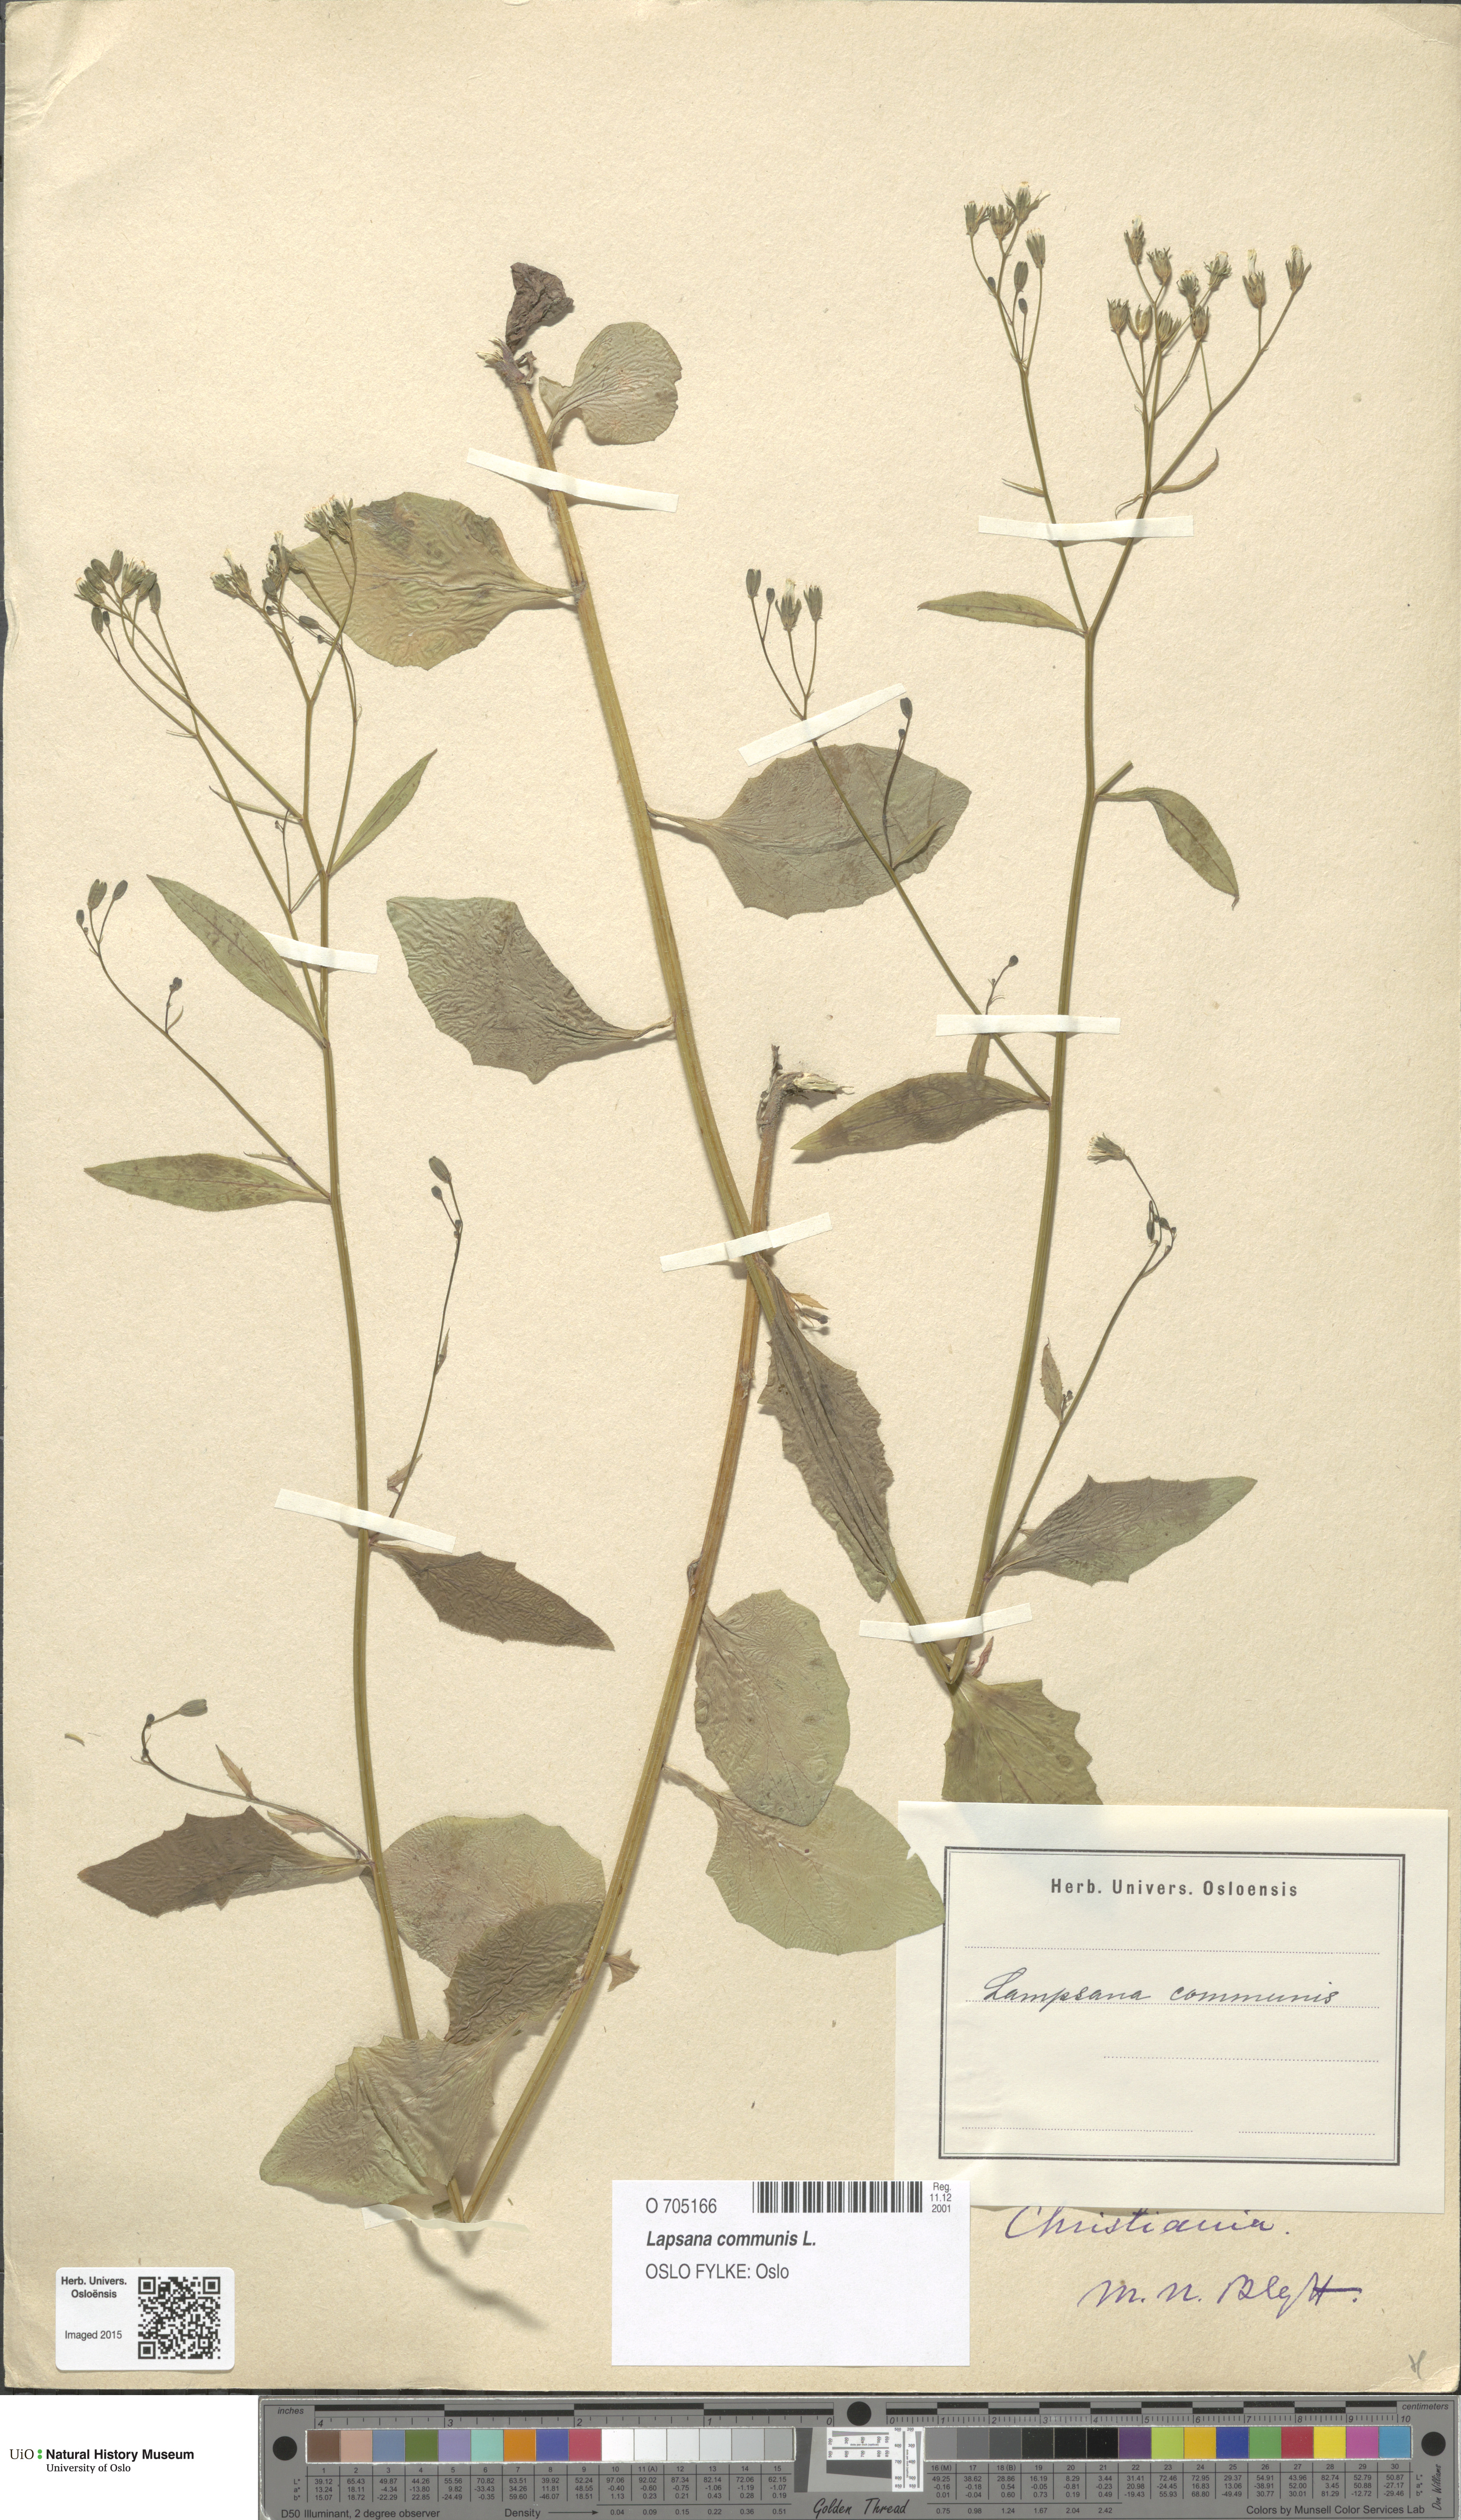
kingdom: Plantae
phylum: Tracheophyta
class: Magnoliopsida
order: Asterales
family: Asteraceae
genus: Lapsana
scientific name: Lapsana communis
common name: Nipplewort
